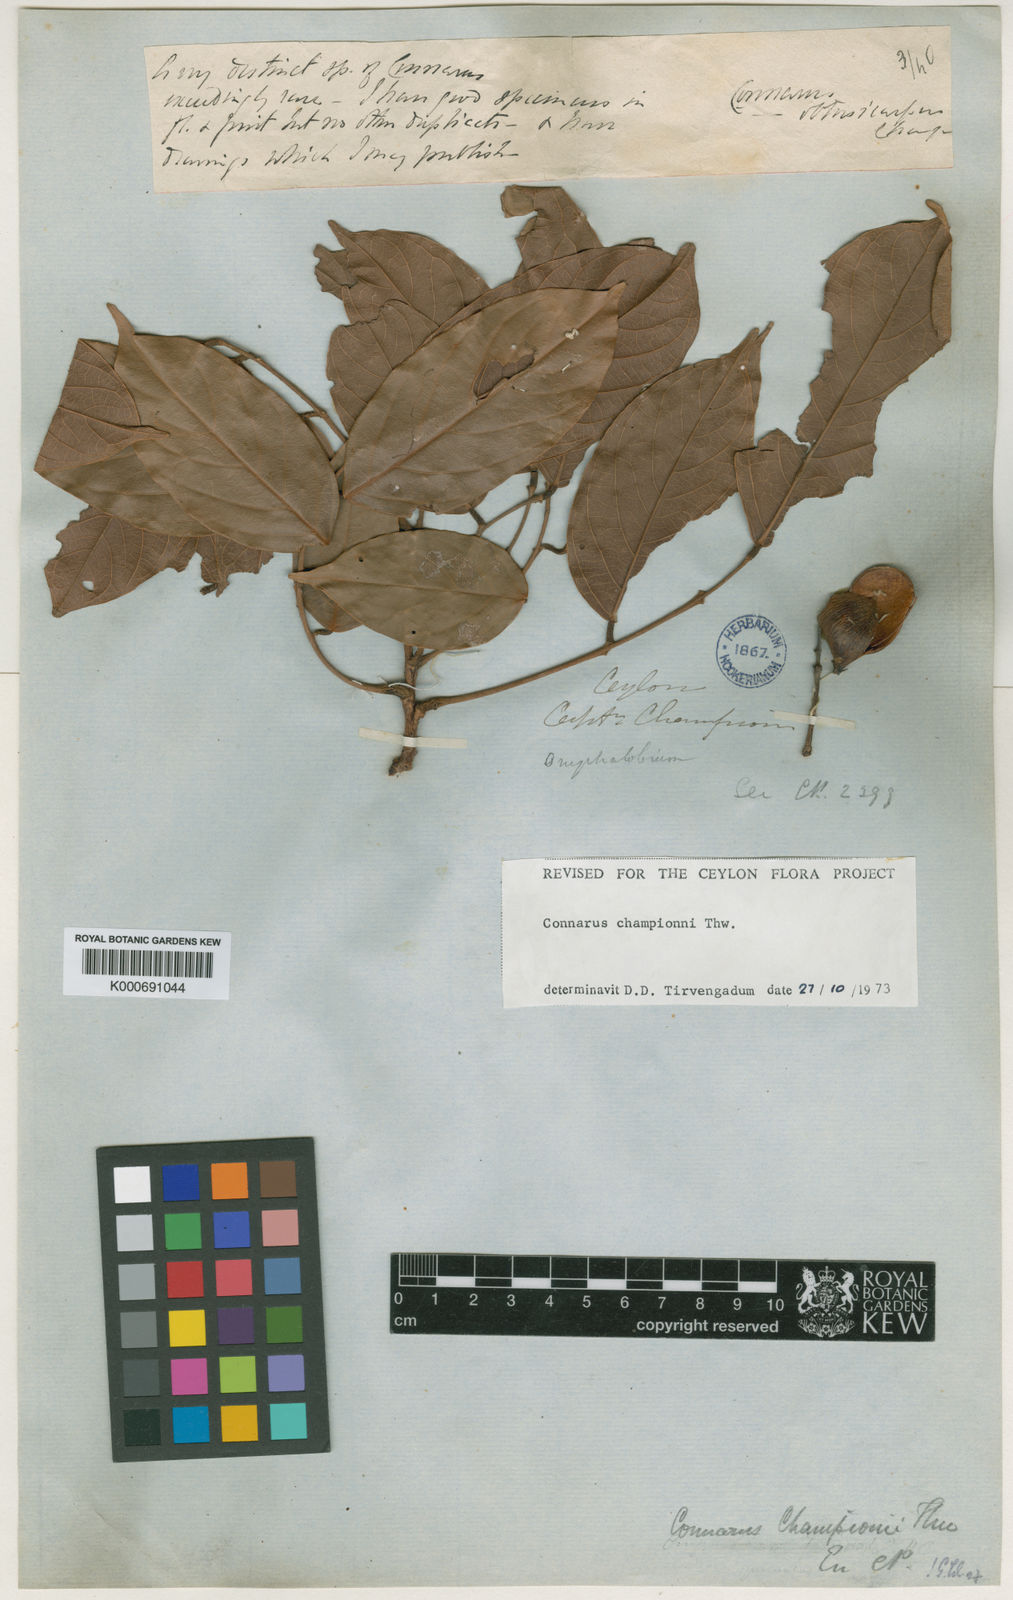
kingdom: Plantae
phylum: Tracheophyta
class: Magnoliopsida
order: Oxalidales
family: Connaraceae
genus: Connarus
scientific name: Connarus championii
